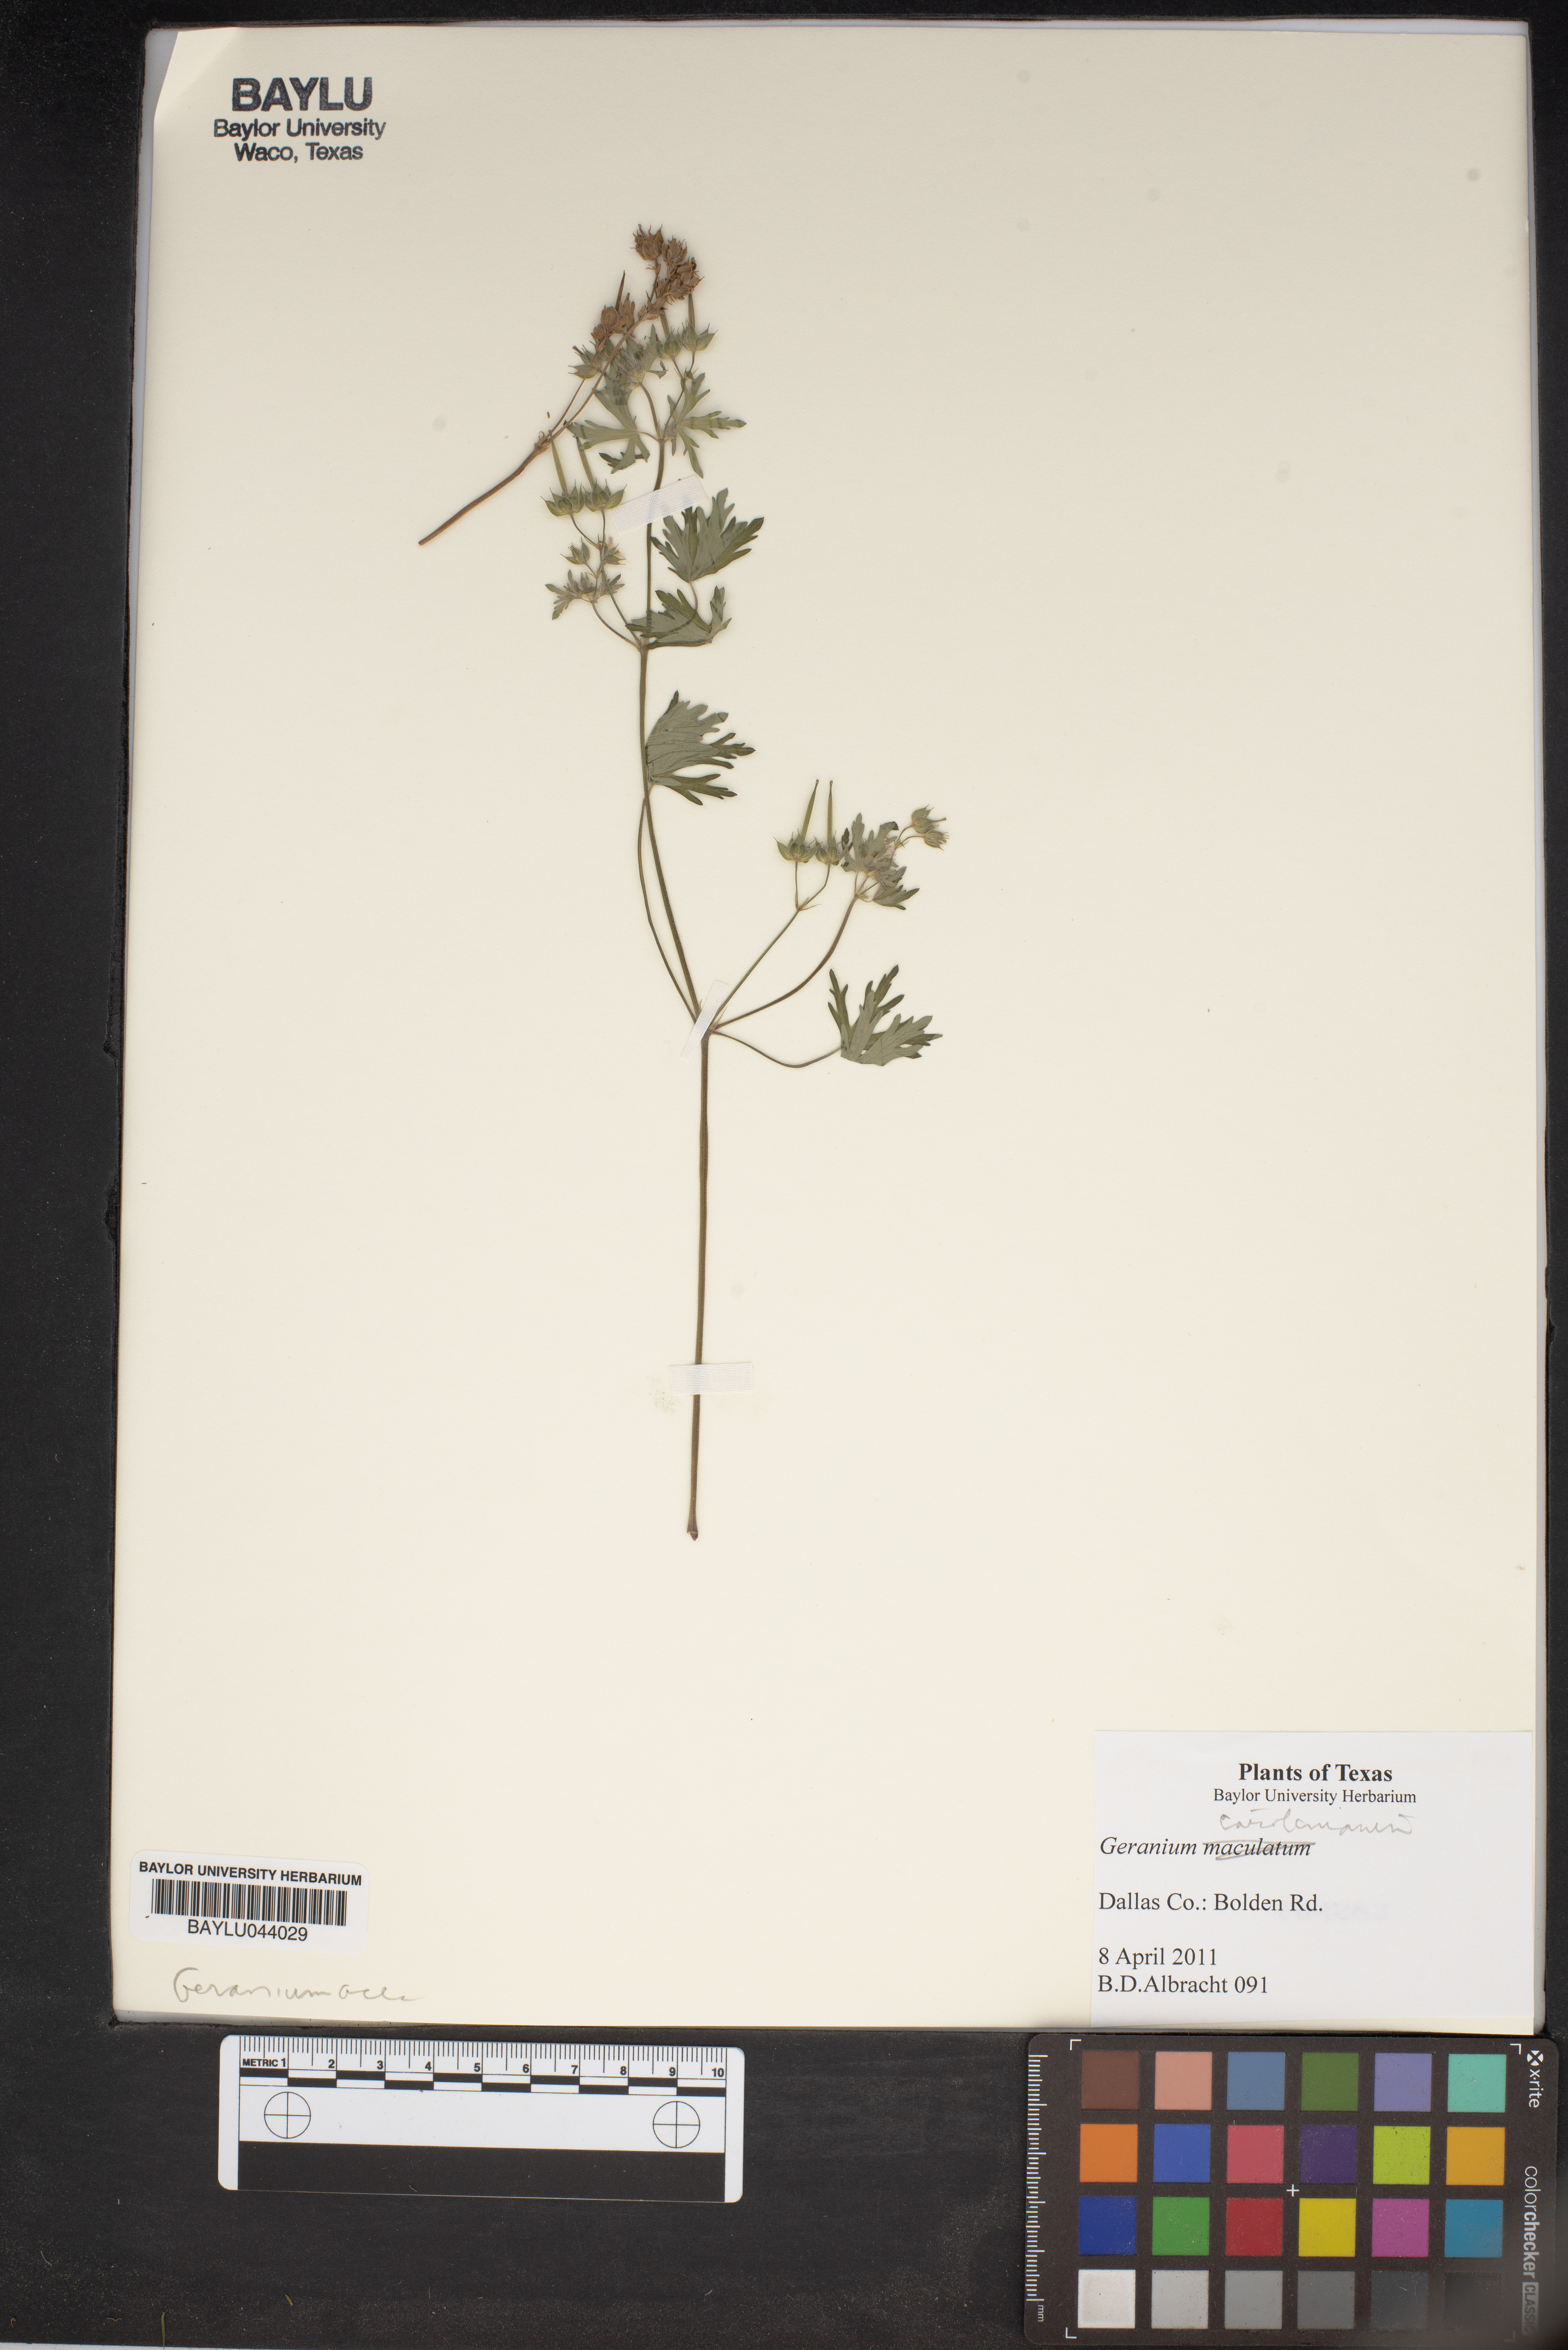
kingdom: Plantae
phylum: Tracheophyta
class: Magnoliopsida
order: Geraniales
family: Geraniaceae
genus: Geranium
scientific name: Geranium carolinianum
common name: Carolina crane's-bill
